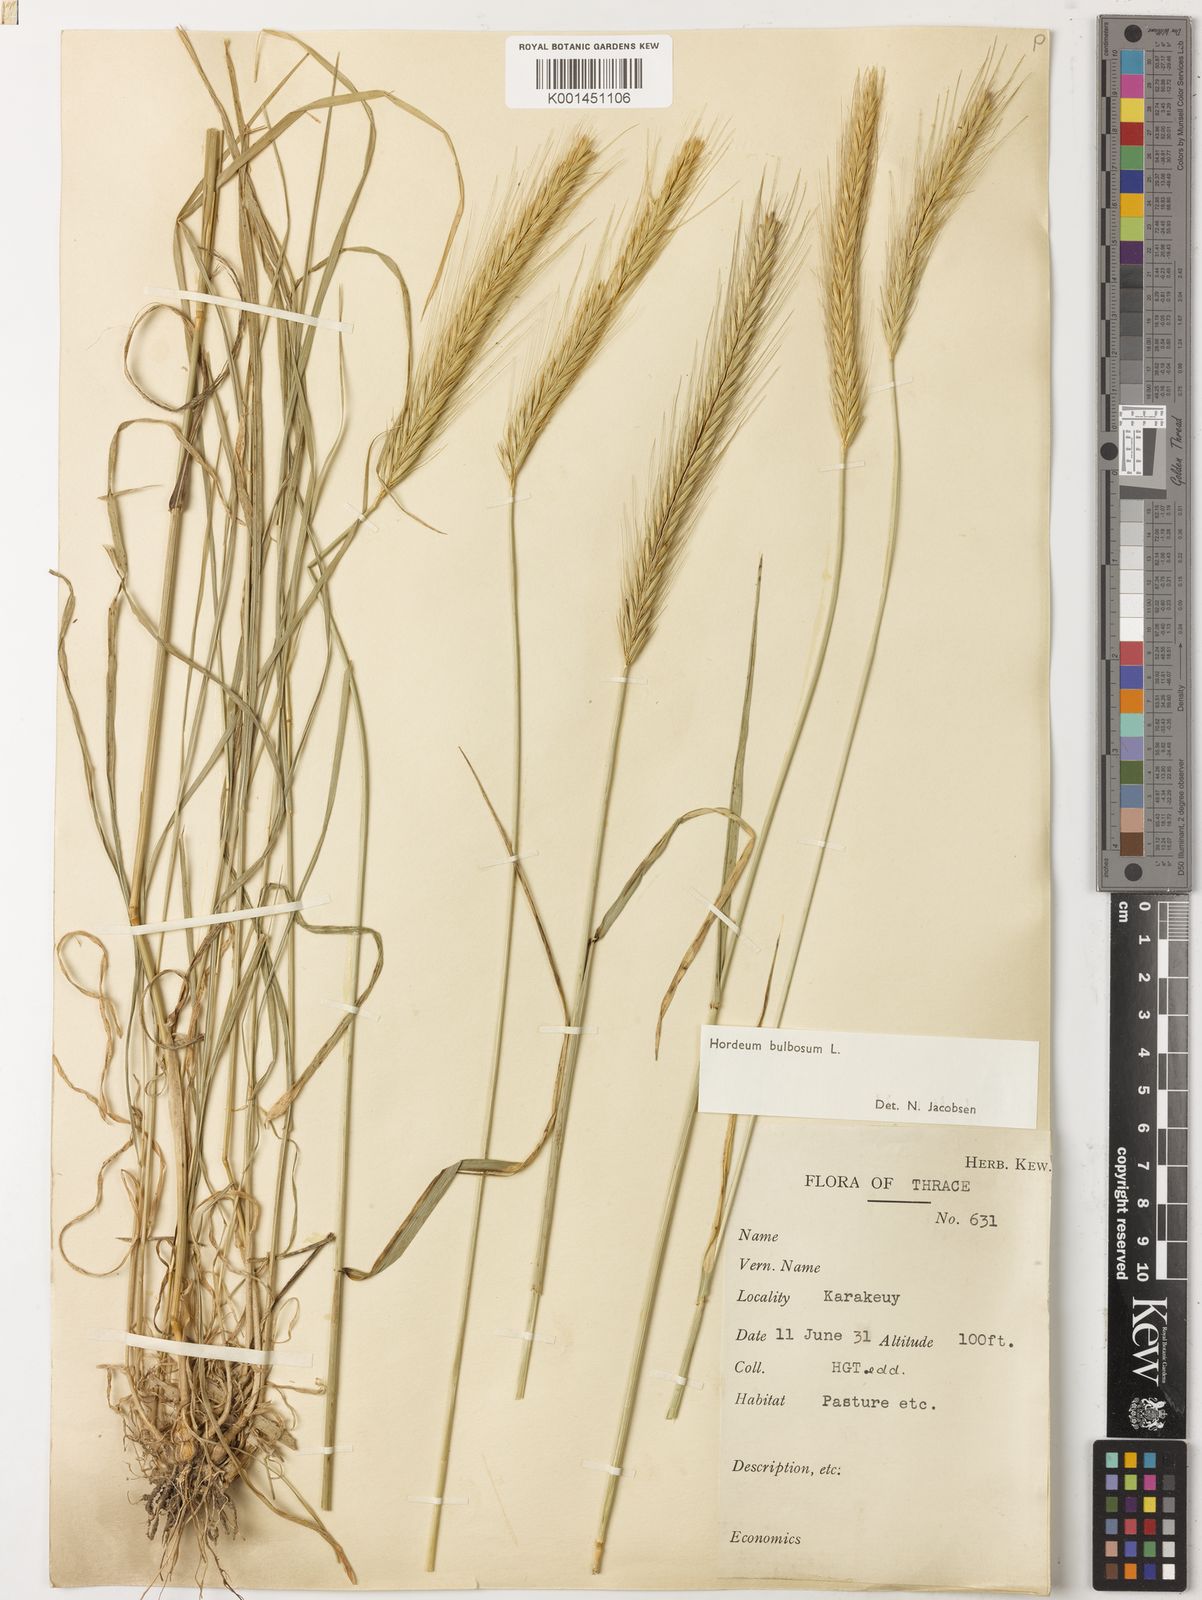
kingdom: Plantae
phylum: Tracheophyta
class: Liliopsida
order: Poales
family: Poaceae
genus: Hordeum
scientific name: Hordeum bulbosum
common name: Bulbous barley
